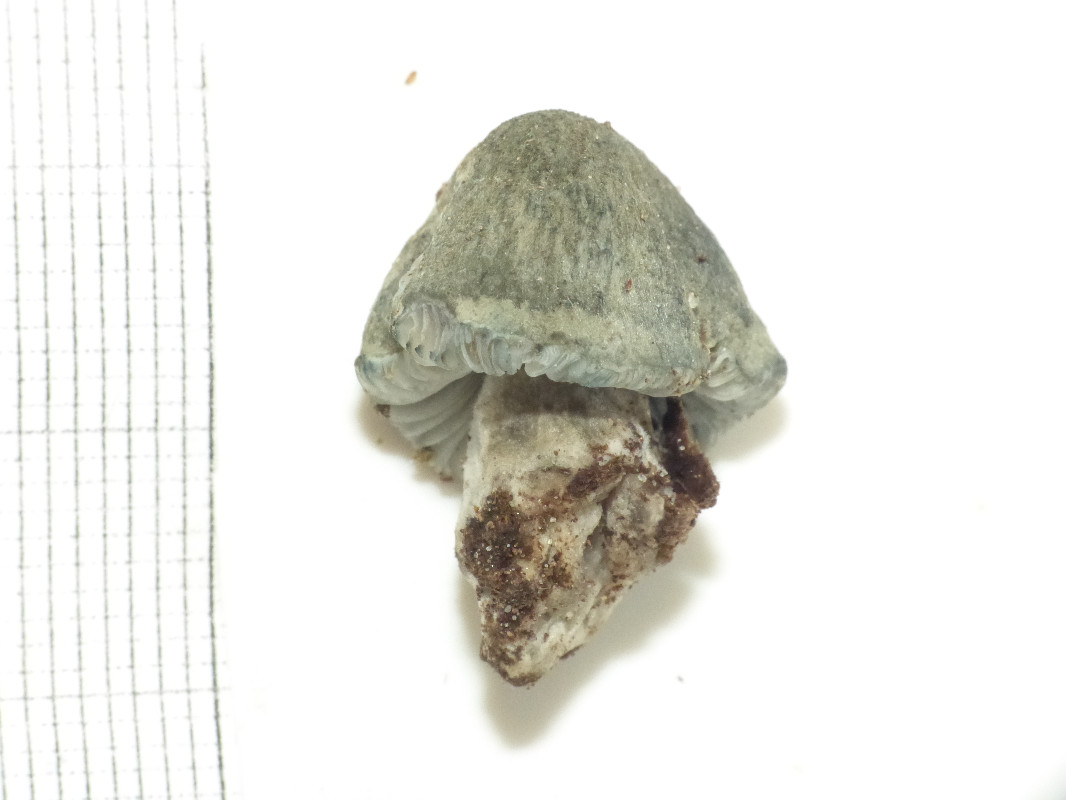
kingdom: Fungi
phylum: Basidiomycota
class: Agaricomycetes
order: Agaricales
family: Pluteaceae
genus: Pluteus
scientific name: Pluteus salicinus
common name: stiv skærmhat
